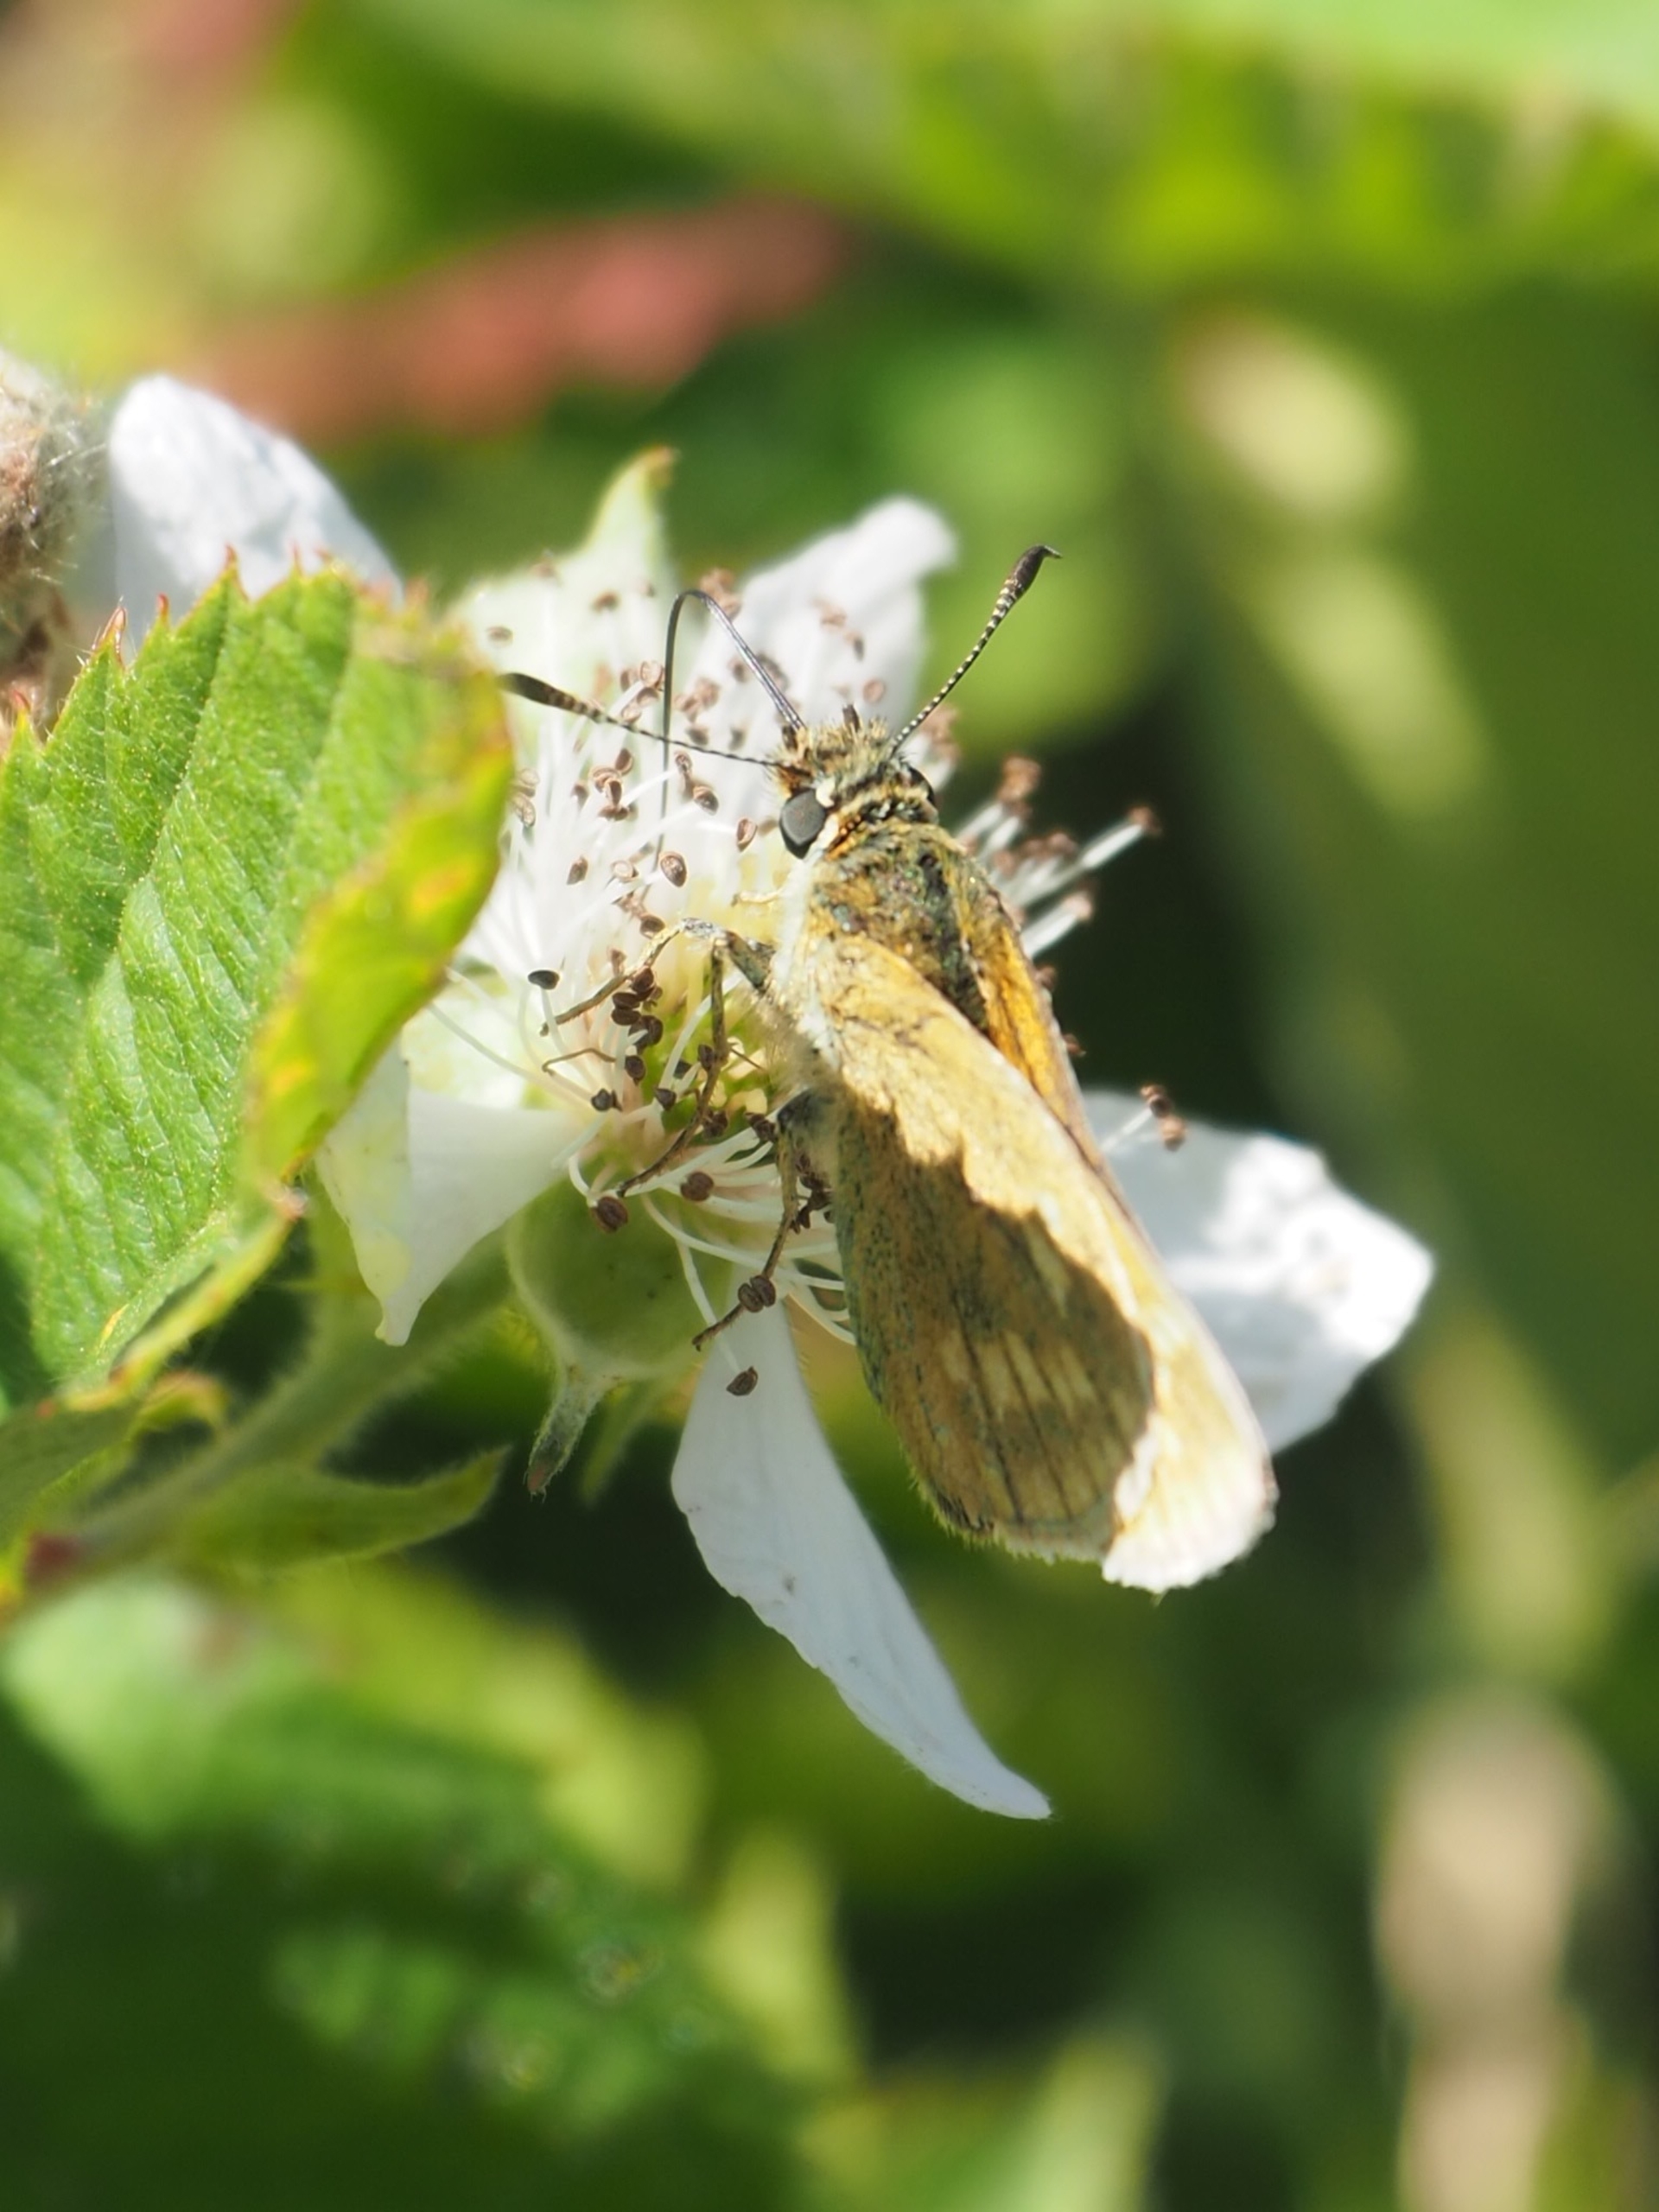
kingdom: Animalia
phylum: Arthropoda
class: Insecta
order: Lepidoptera
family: Hesperiidae
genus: Ochlodes
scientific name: Ochlodes venata
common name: Stor bredpande
